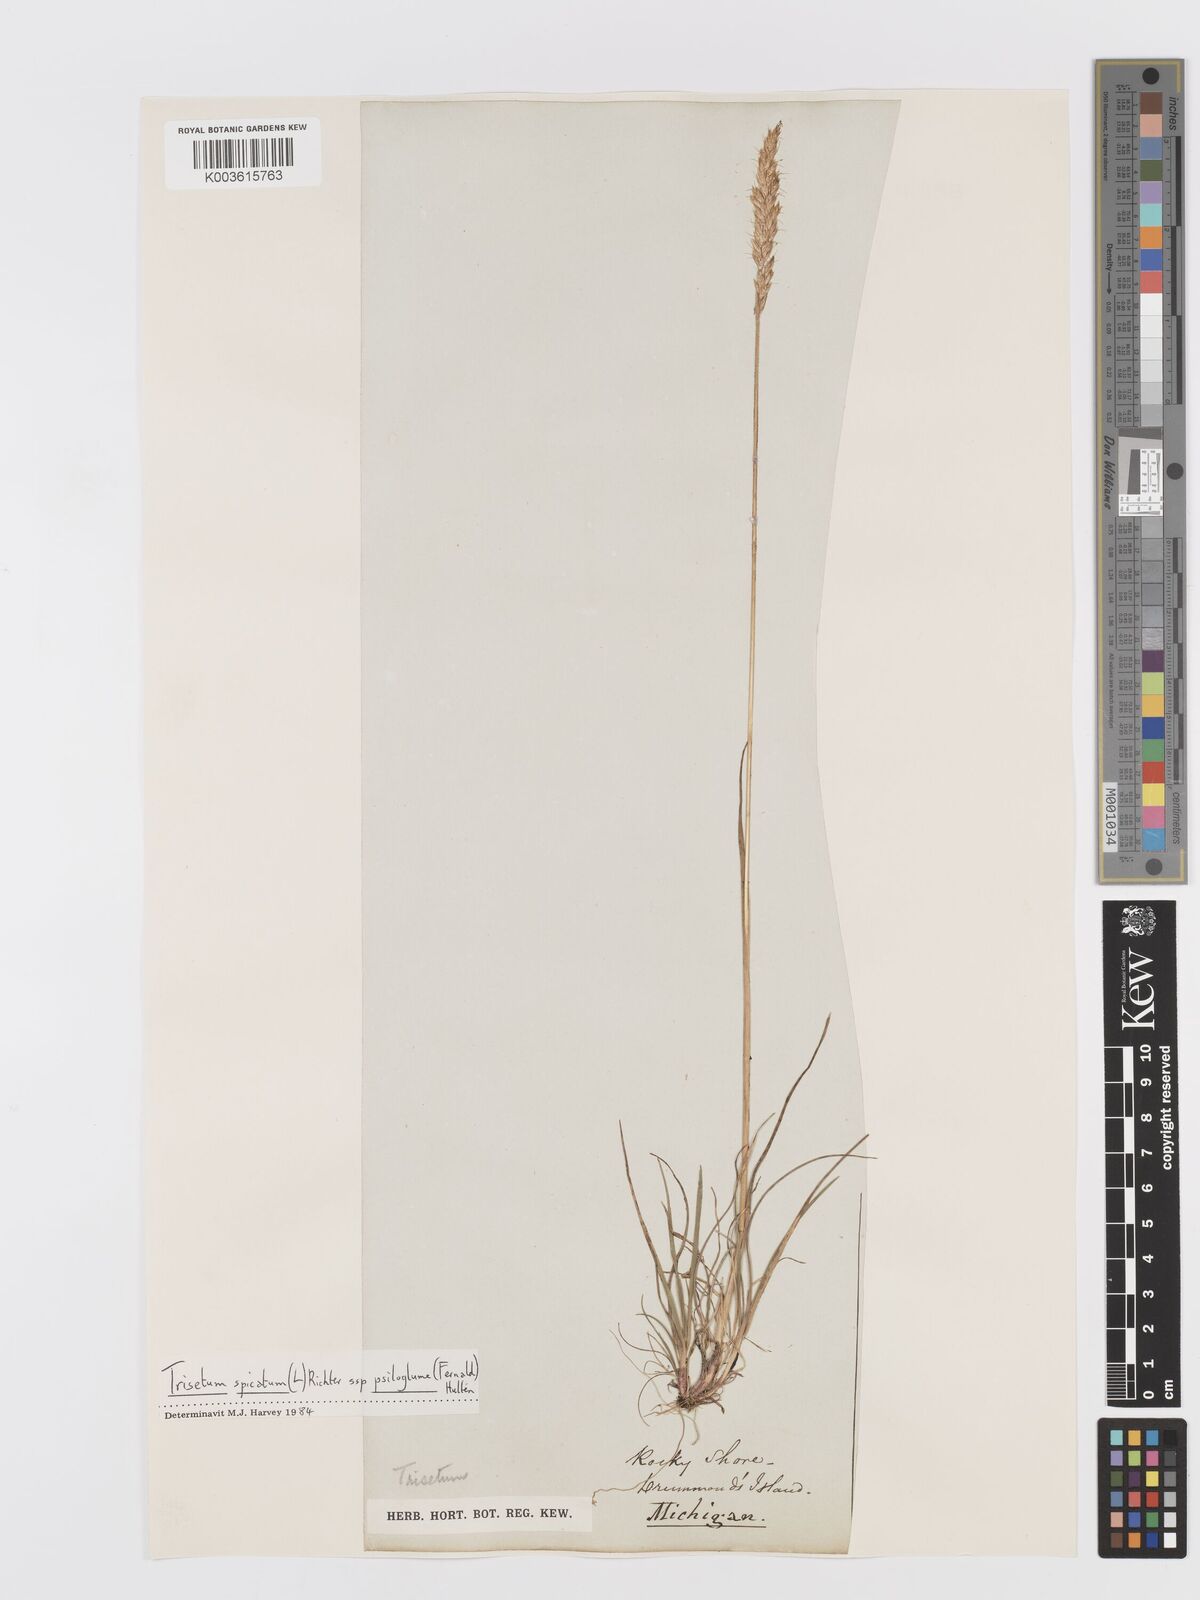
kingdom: Plantae
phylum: Tracheophyta
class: Liliopsida
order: Poales
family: Poaceae
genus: Trisetum
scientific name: Trisetum
